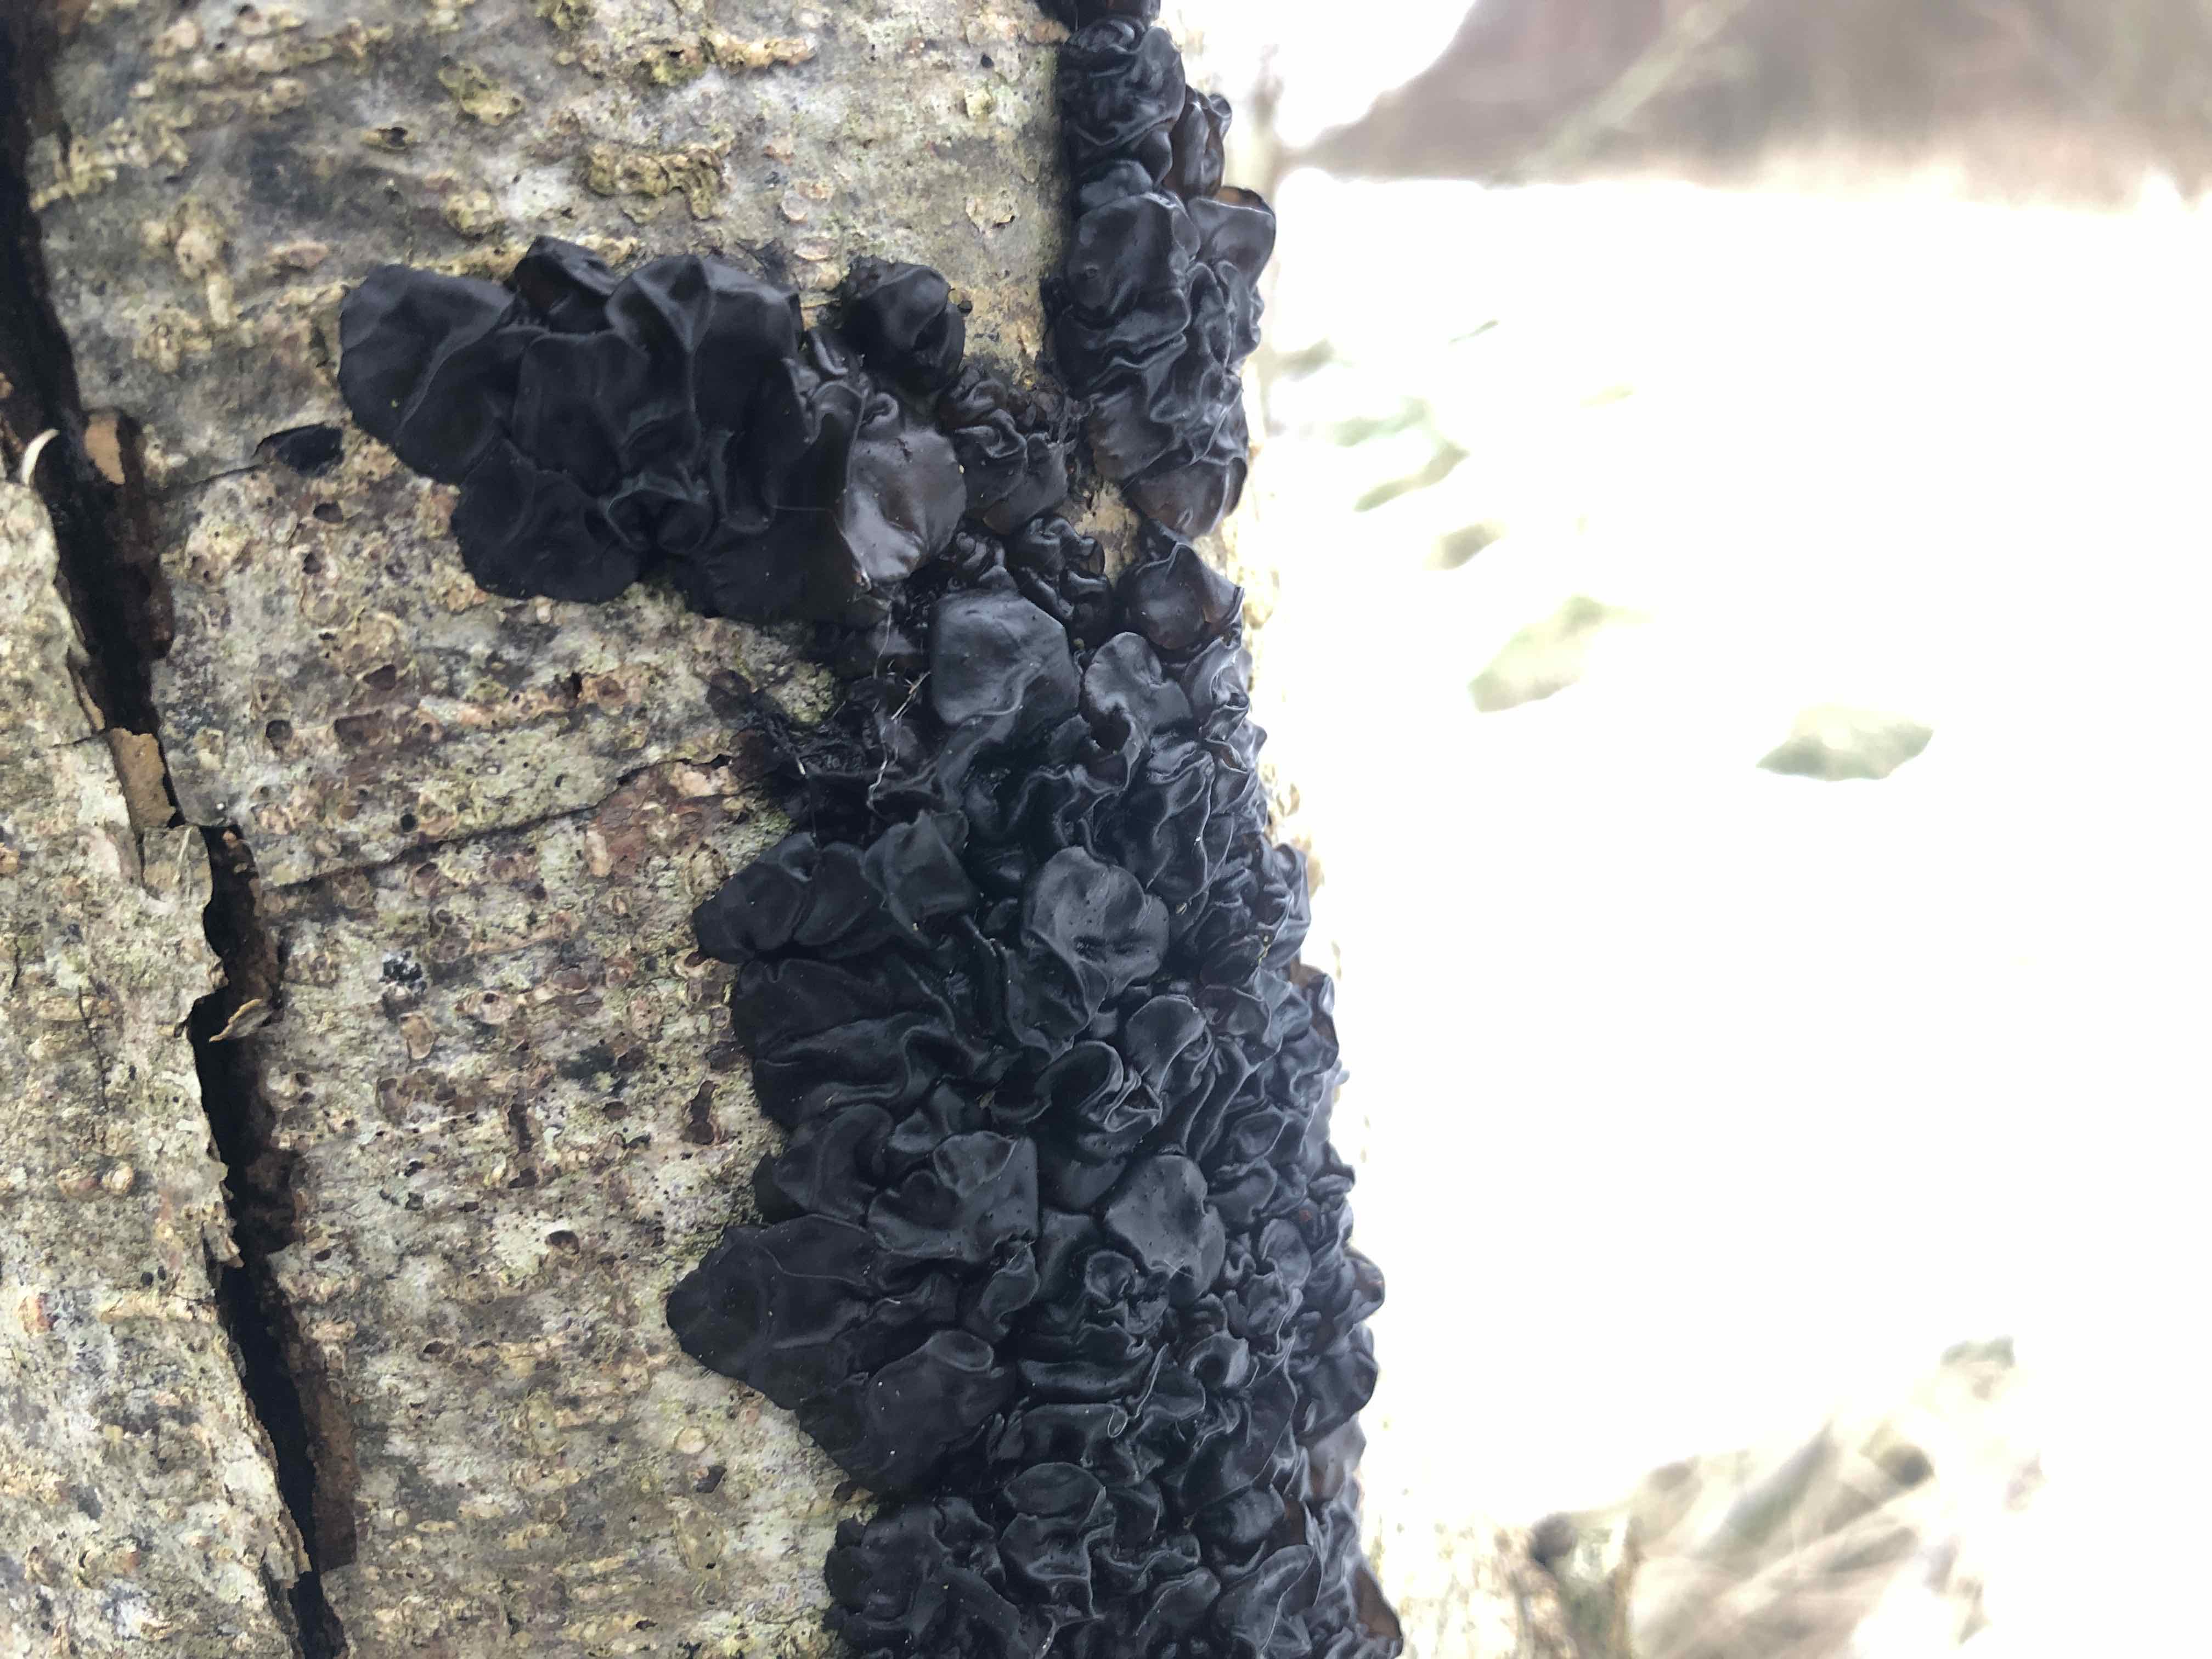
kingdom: Fungi
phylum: Basidiomycota
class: Agaricomycetes
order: Auriculariales
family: Auriculariaceae
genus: Exidia
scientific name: Exidia nigricans
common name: almindelig bævretop
